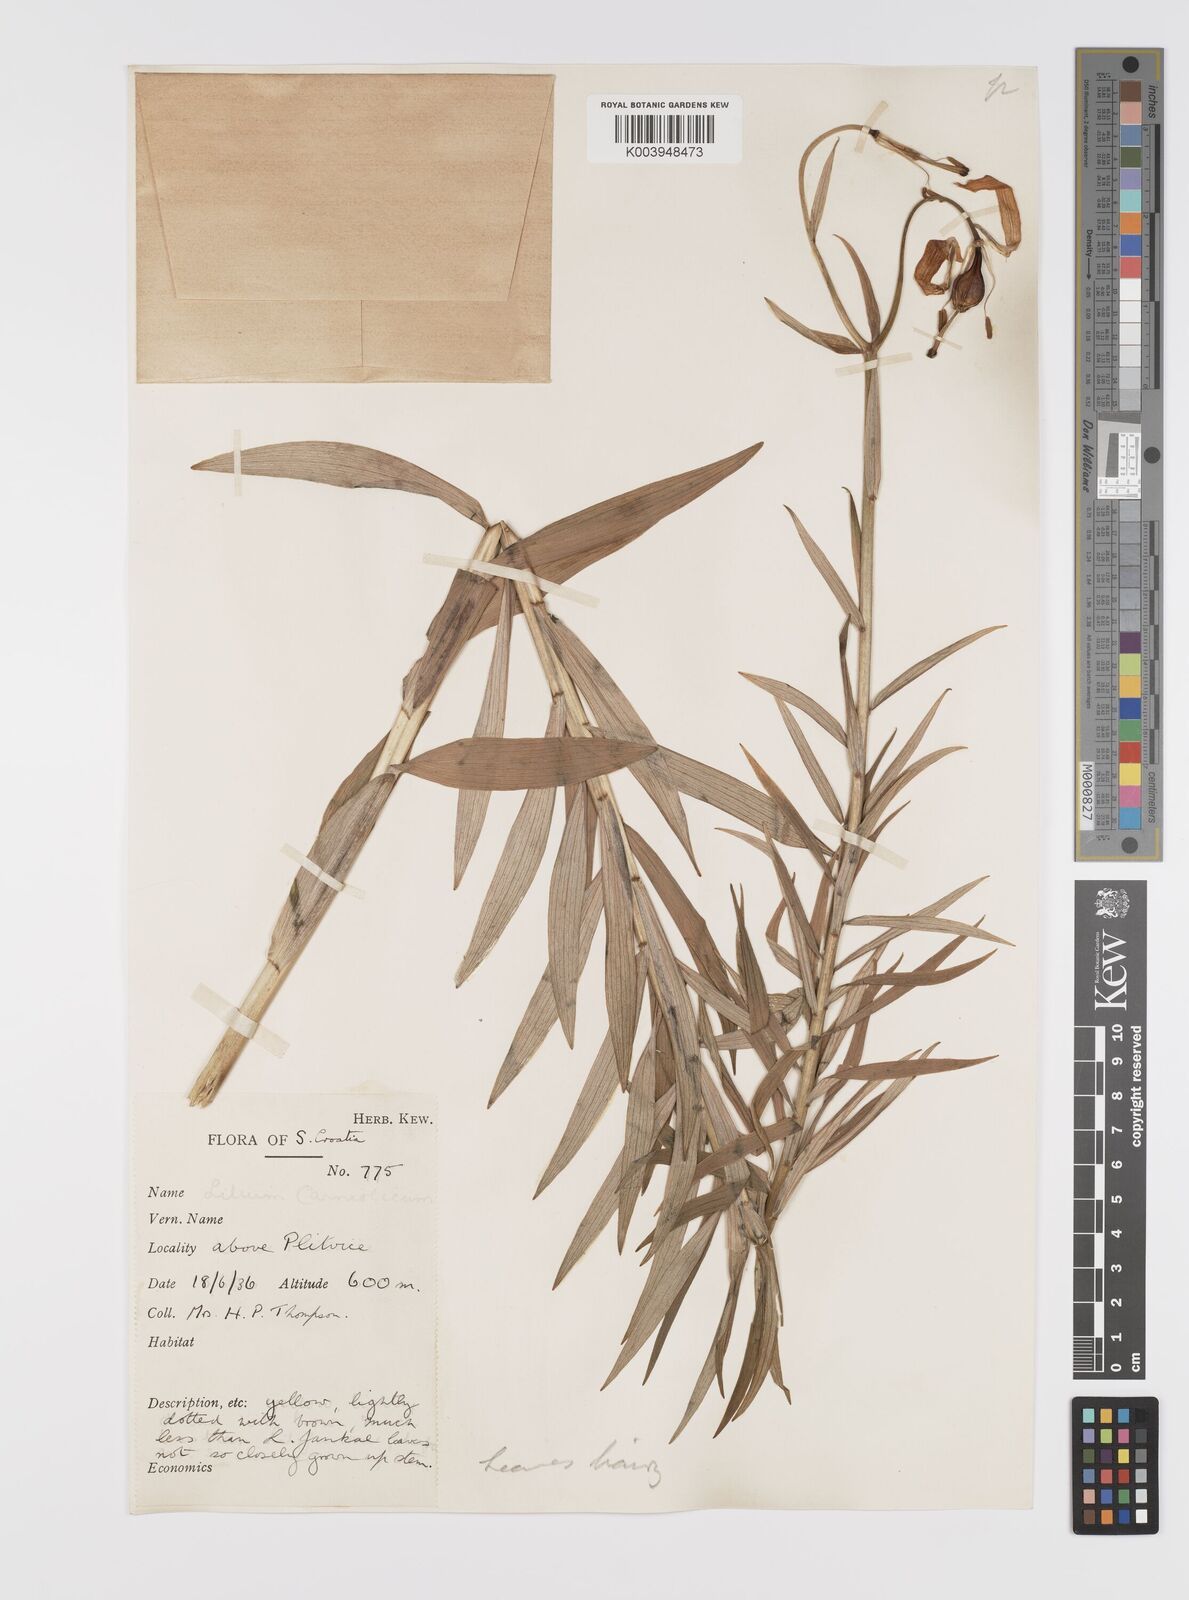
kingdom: Plantae
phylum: Tracheophyta
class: Liliopsida
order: Liliales
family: Liliaceae
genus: Lilium
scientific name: Lilium catesbaei
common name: Catesby's lily
